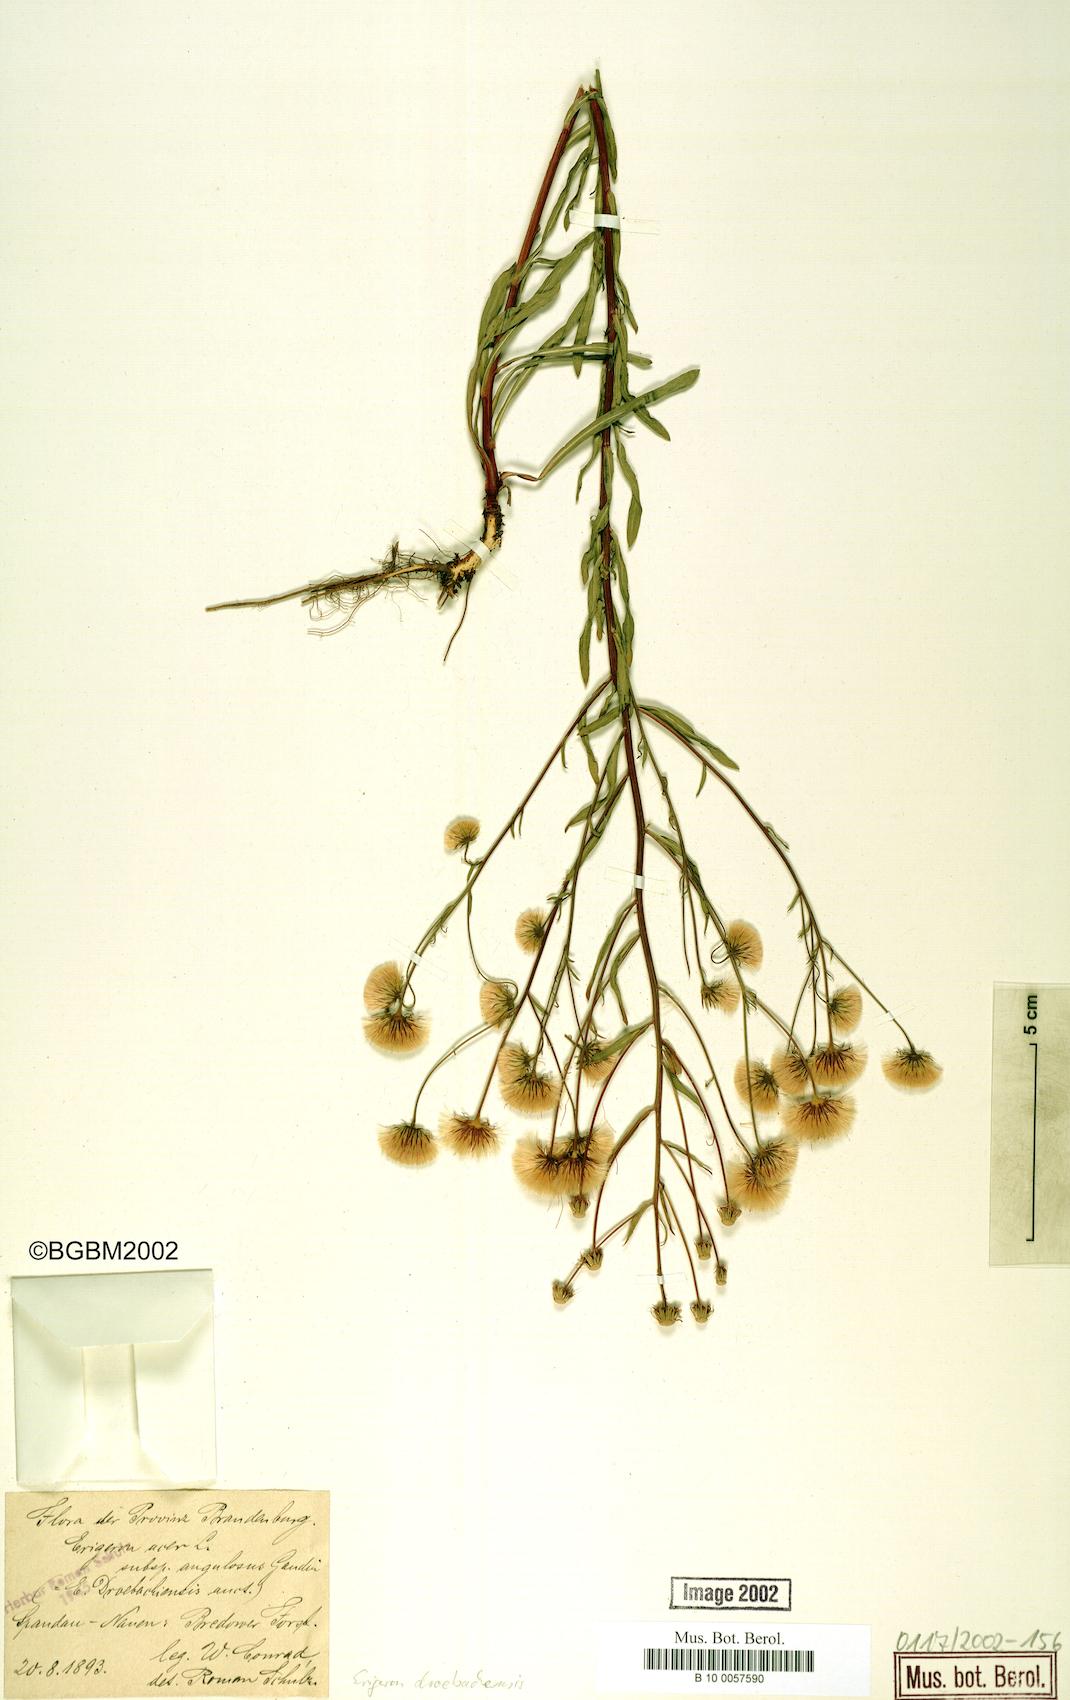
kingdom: Plantae
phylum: Tracheophyta
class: Magnoliopsida
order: Asterales
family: Asteraceae
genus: Erigeron
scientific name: Erigeron acris
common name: Blue fleabane
